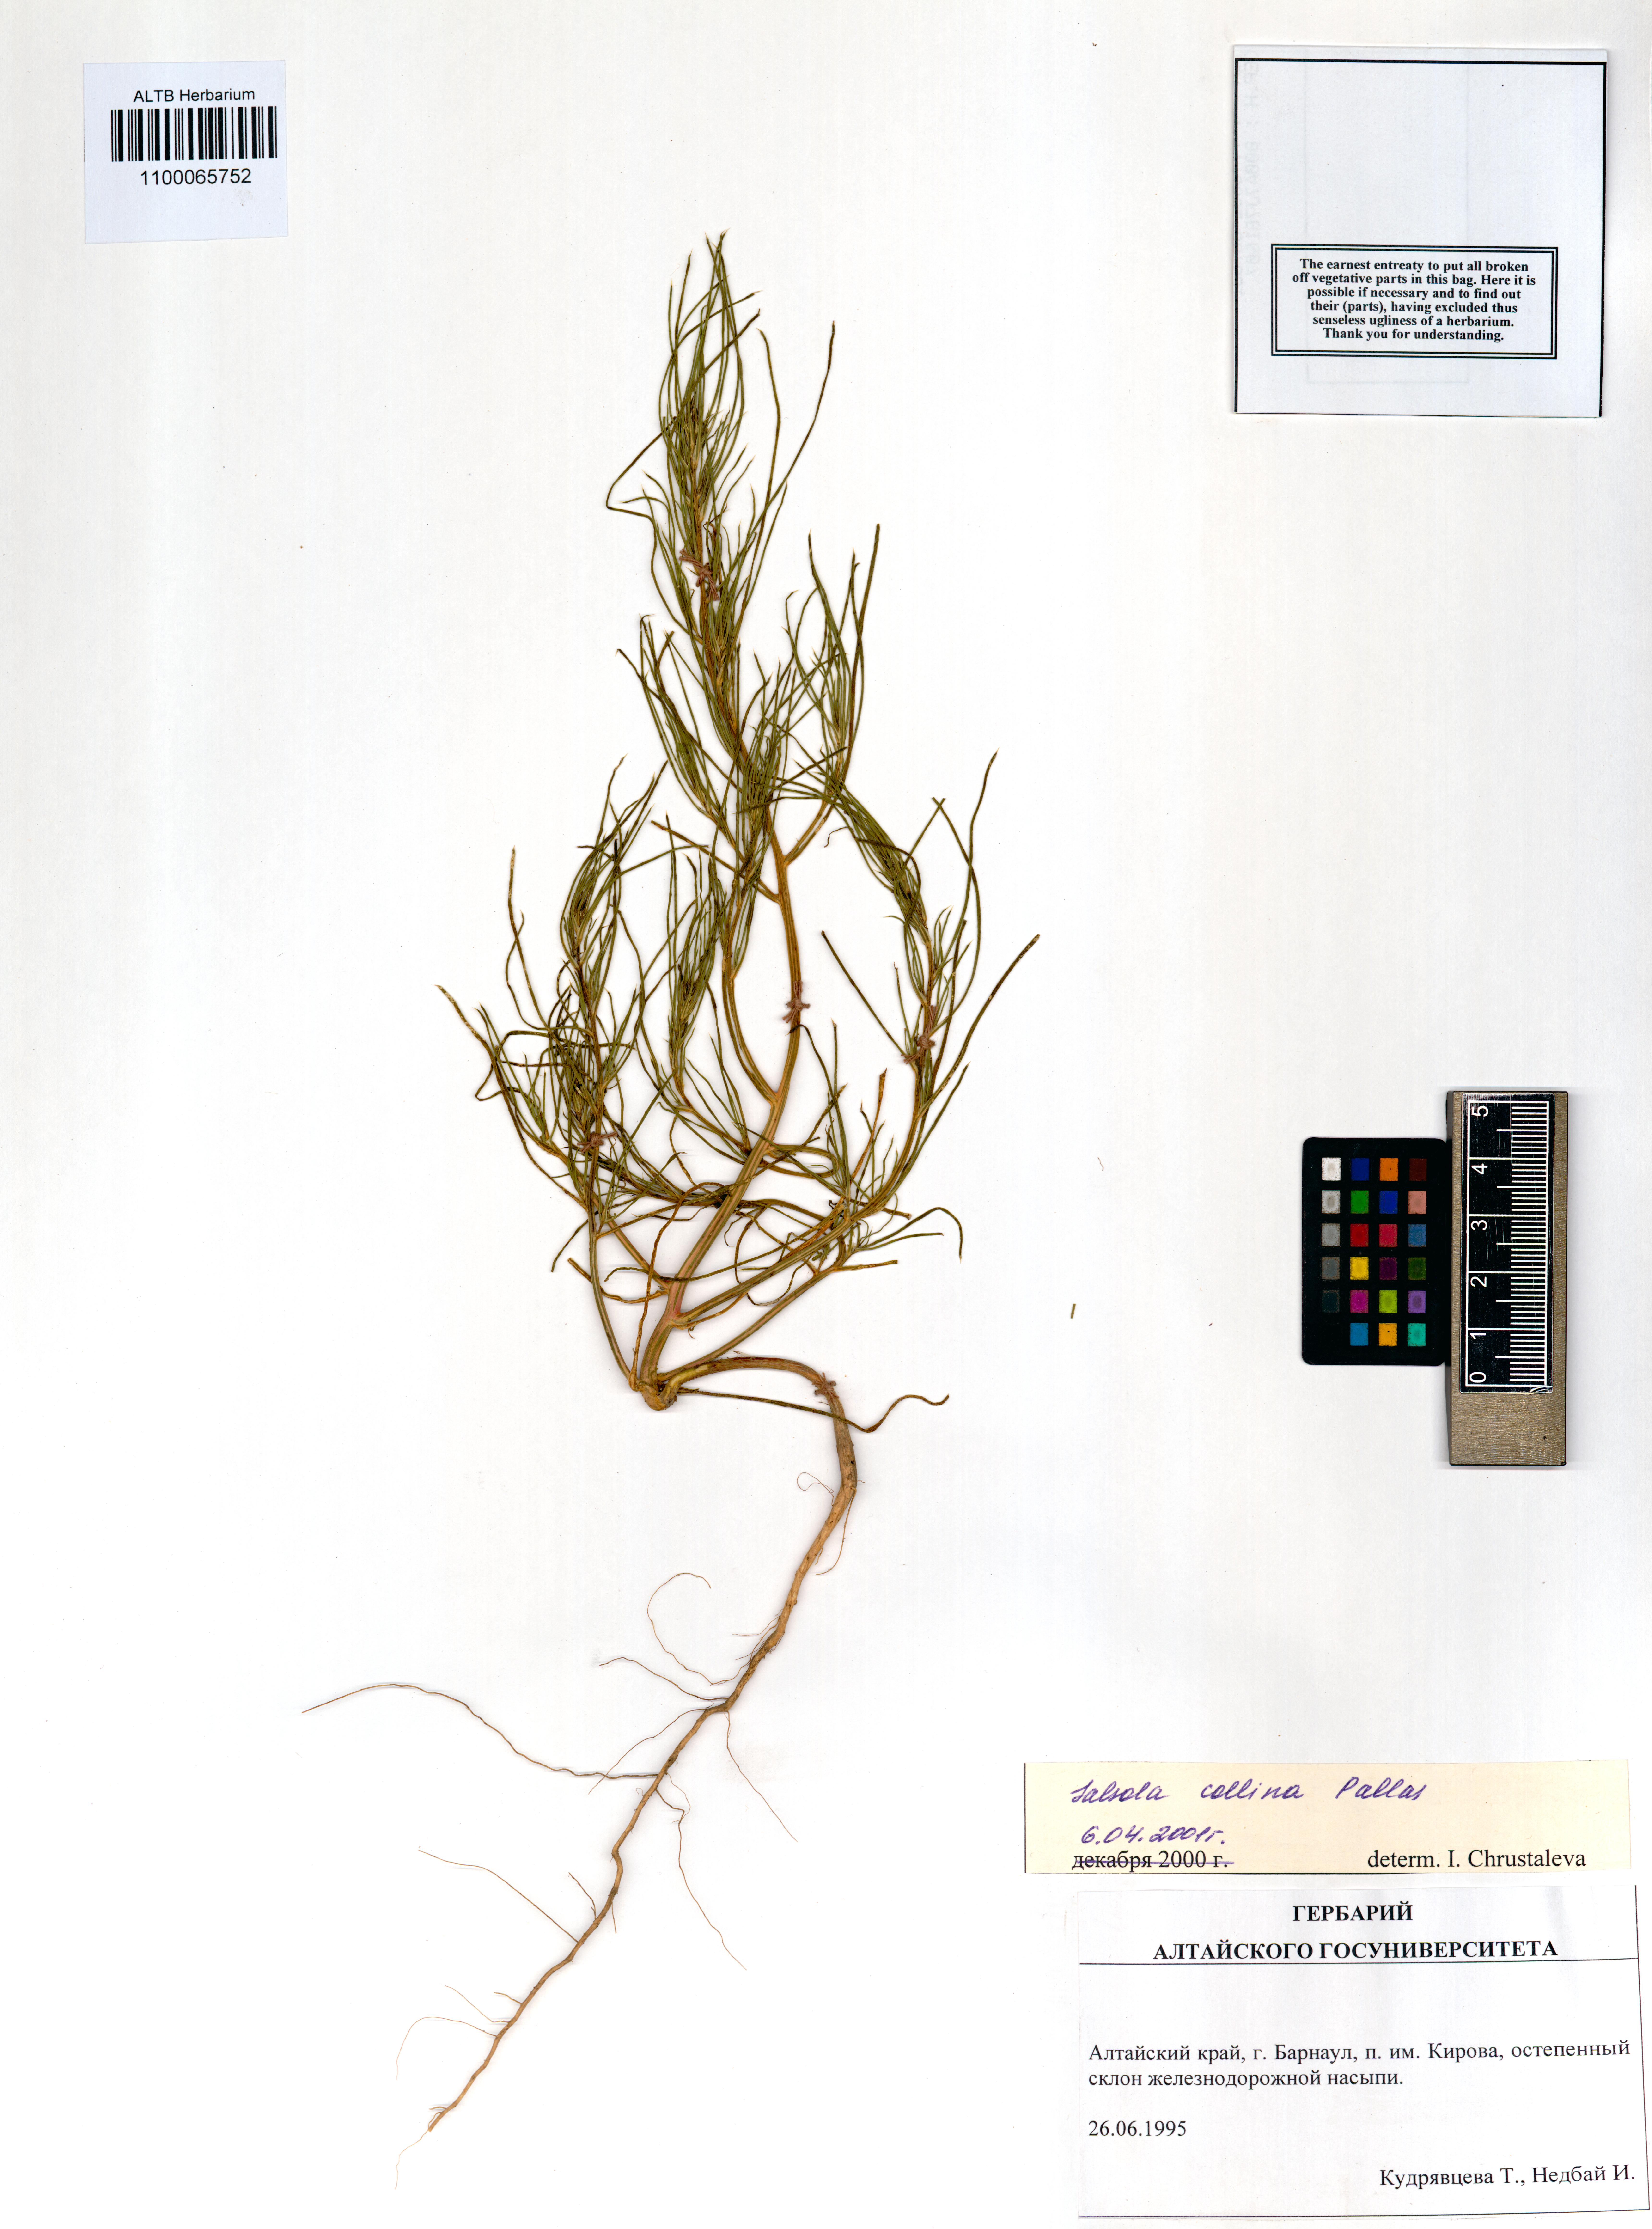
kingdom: Plantae
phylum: Tracheophyta
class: Magnoliopsida
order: Caryophyllales
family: Amaranthaceae
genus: Salsola
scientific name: Salsola collina
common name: Tumbleweed
